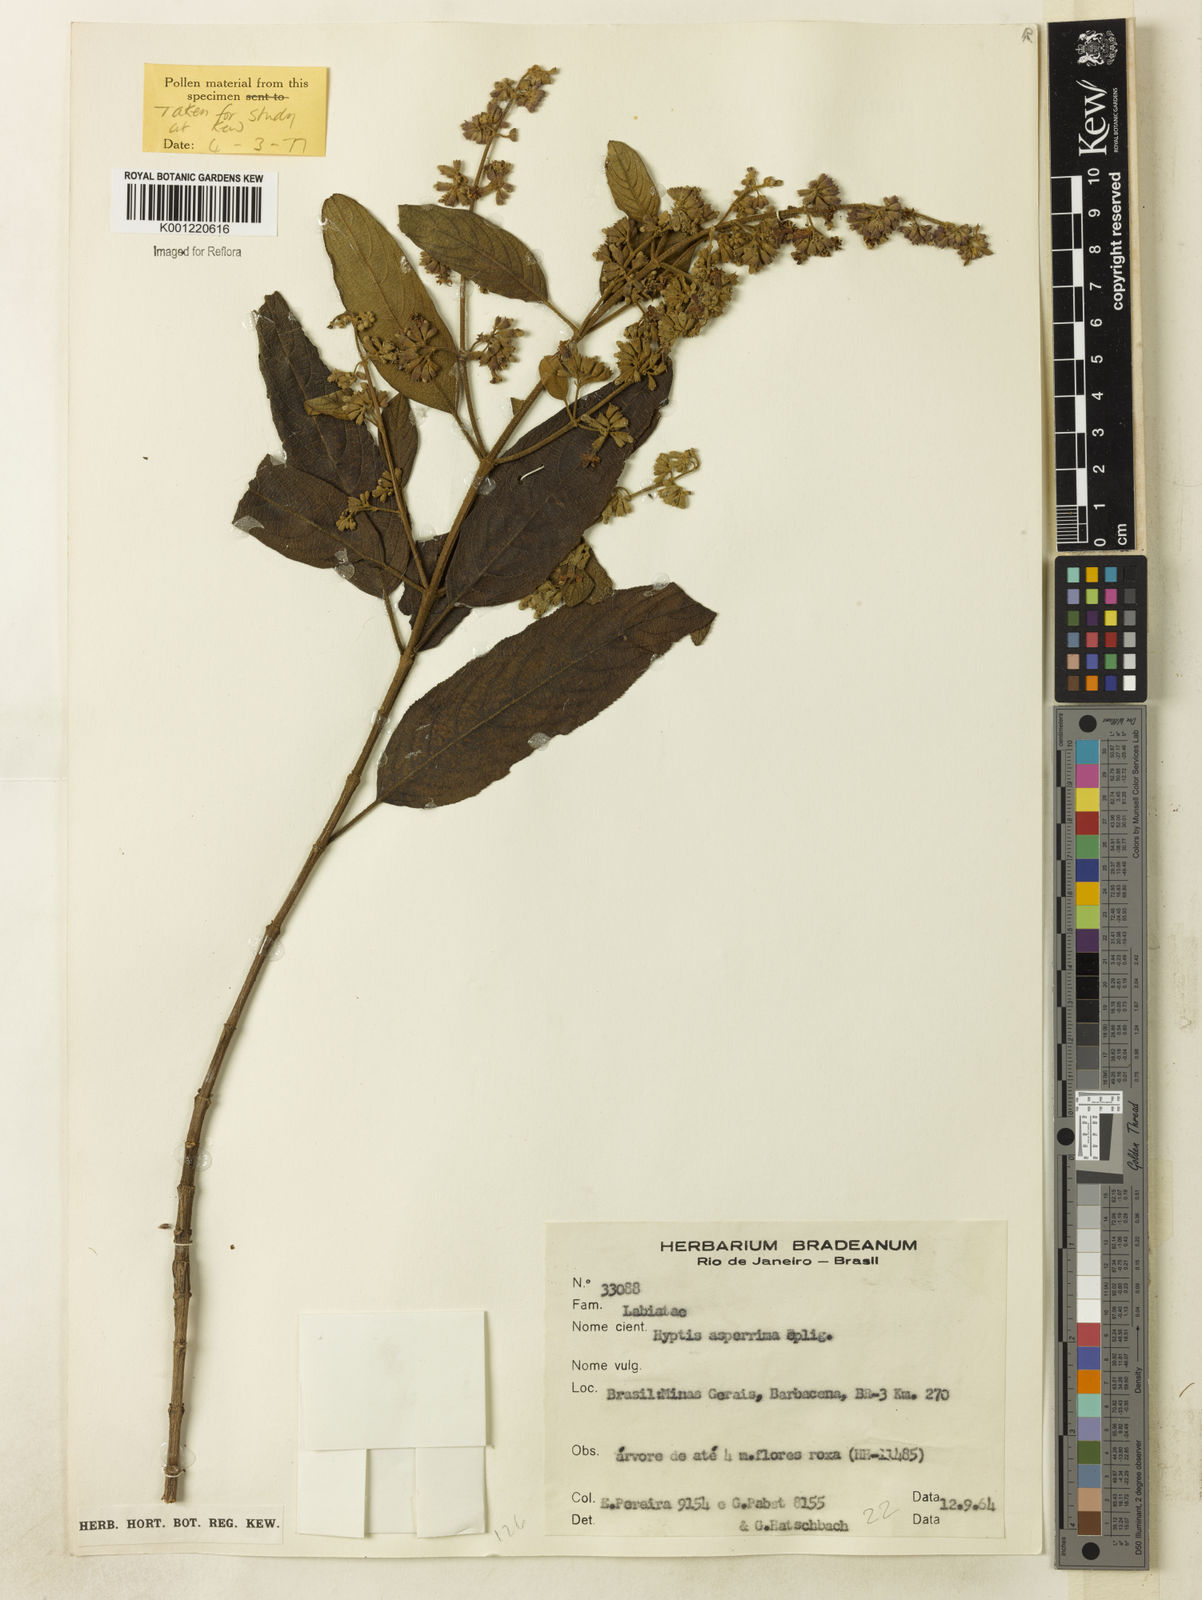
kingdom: Plantae
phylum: Tracheophyta
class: Magnoliopsida
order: Lamiales
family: Lamiaceae
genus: Hyptidendron
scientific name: Hyptidendron asperrimum
